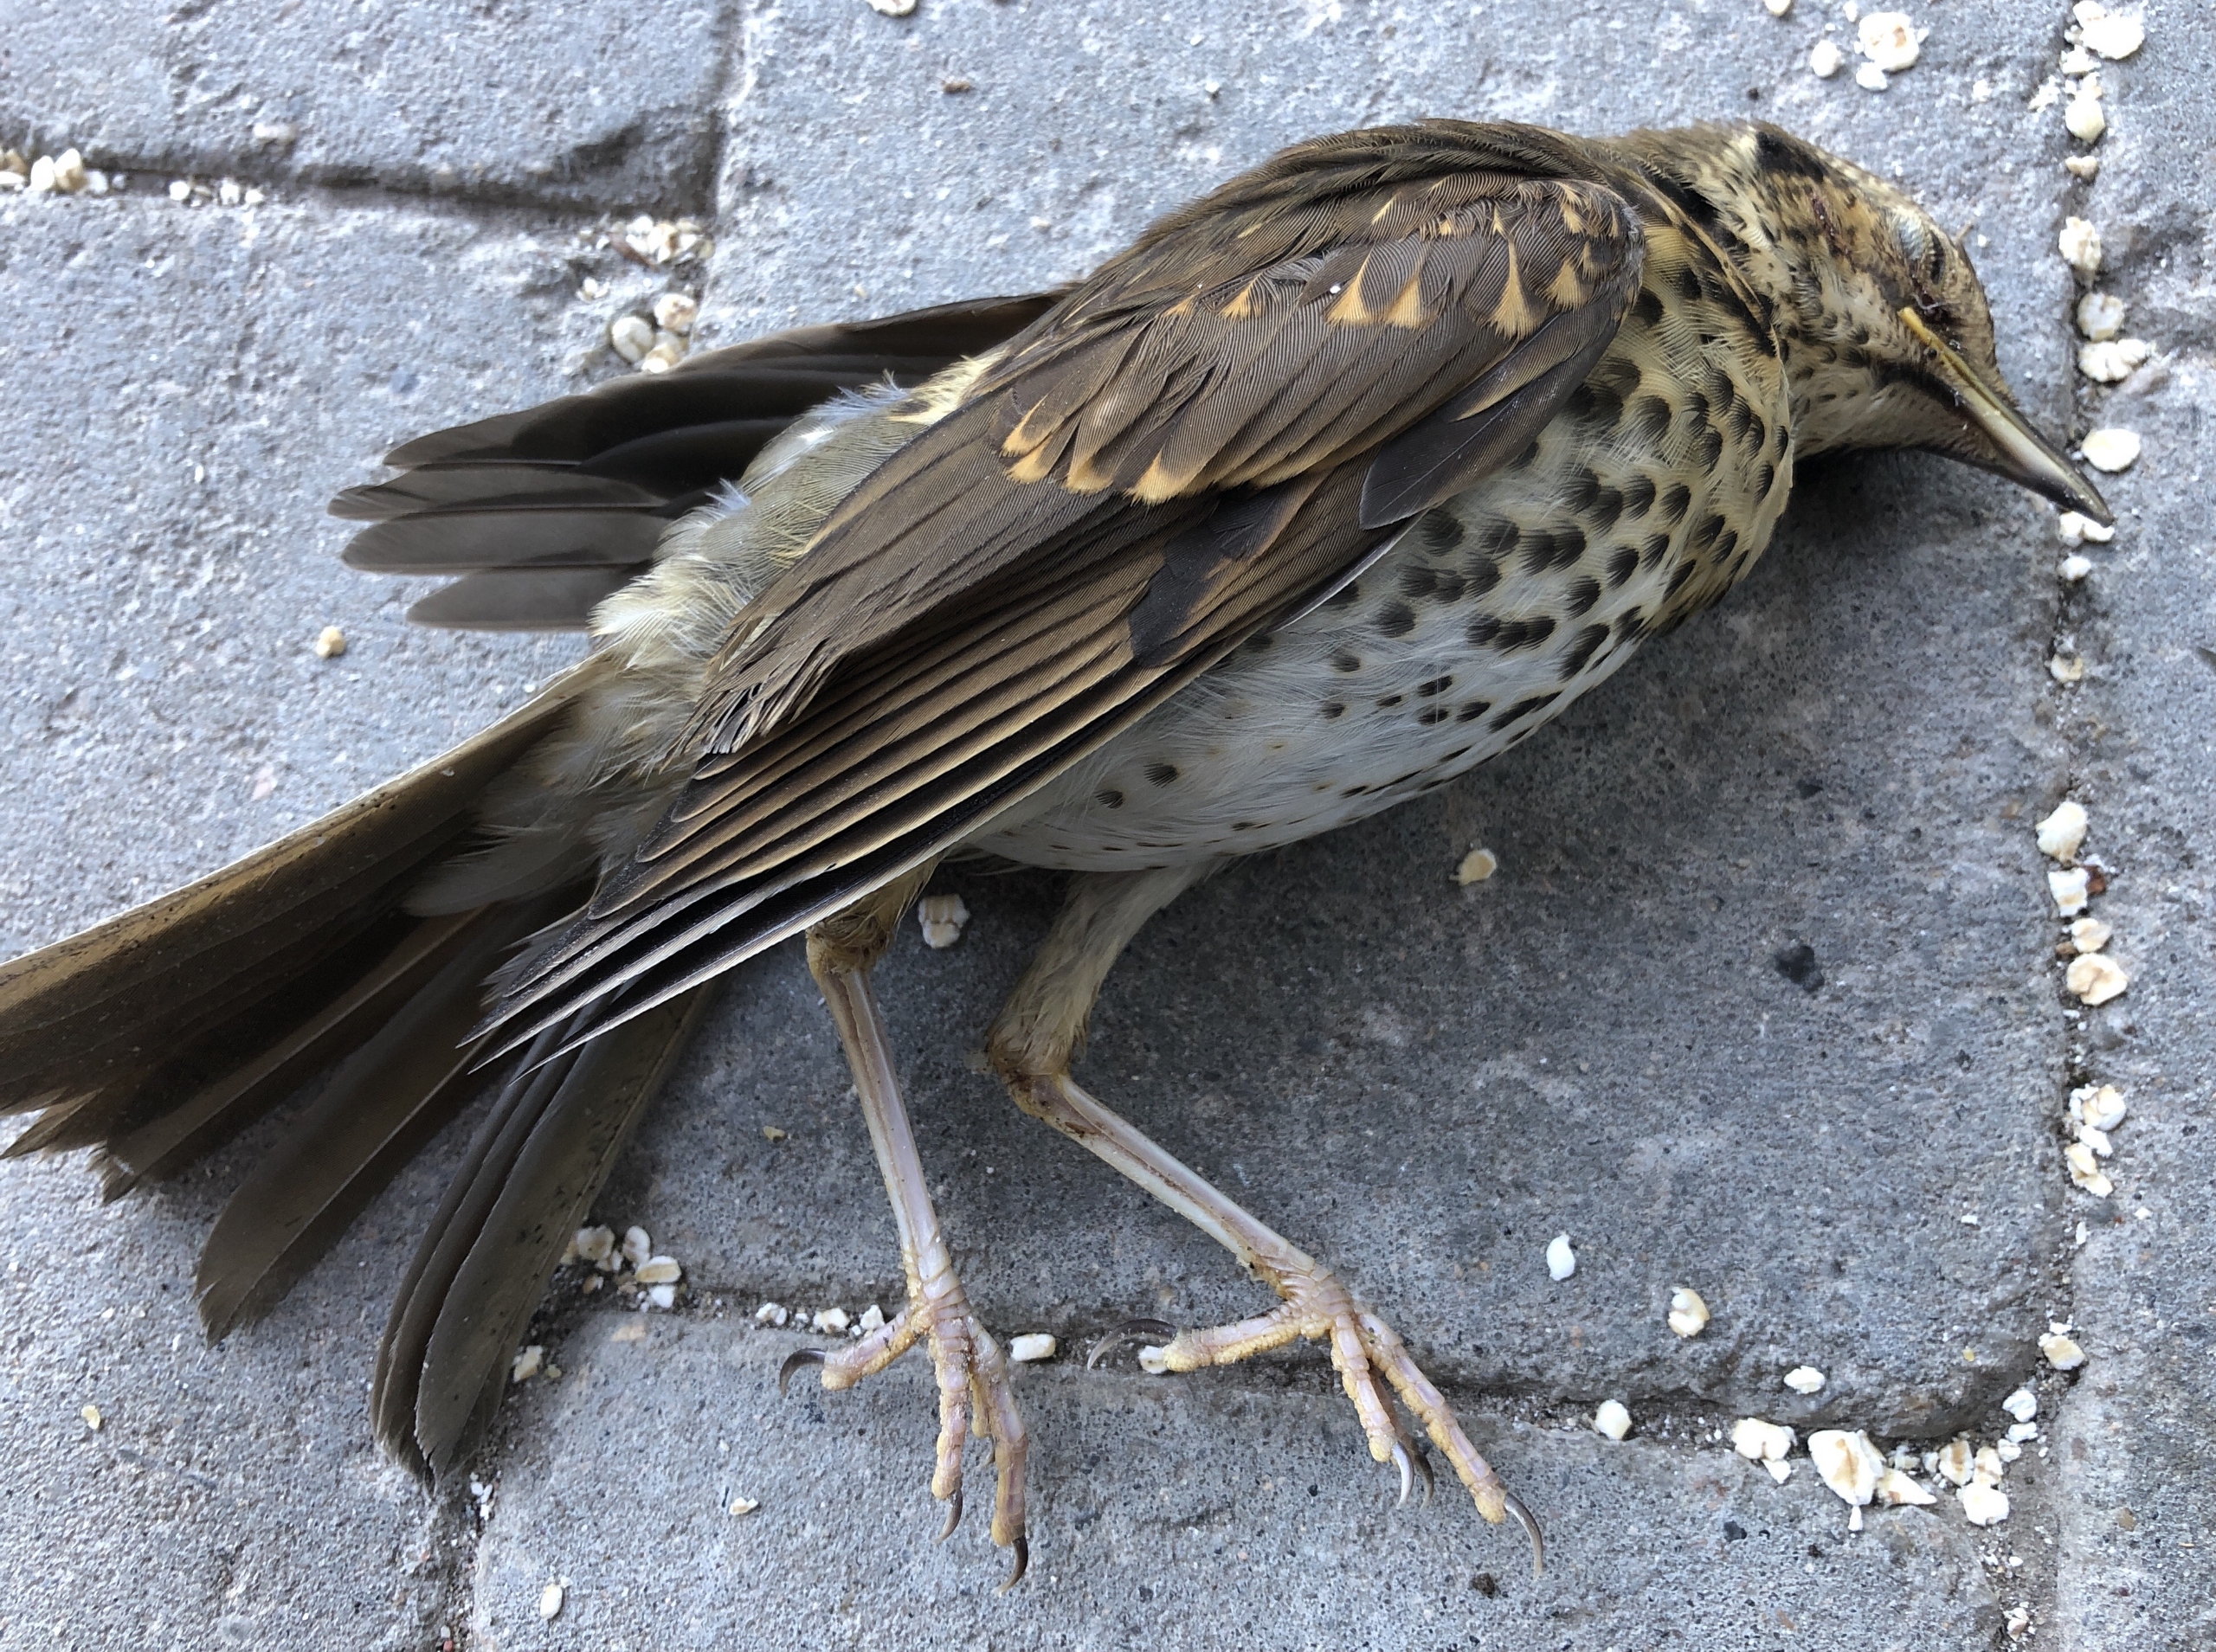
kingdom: Animalia
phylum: Chordata
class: Aves
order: Passeriformes
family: Turdidae
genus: Turdus
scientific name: Turdus philomelos
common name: Sangdrossel
